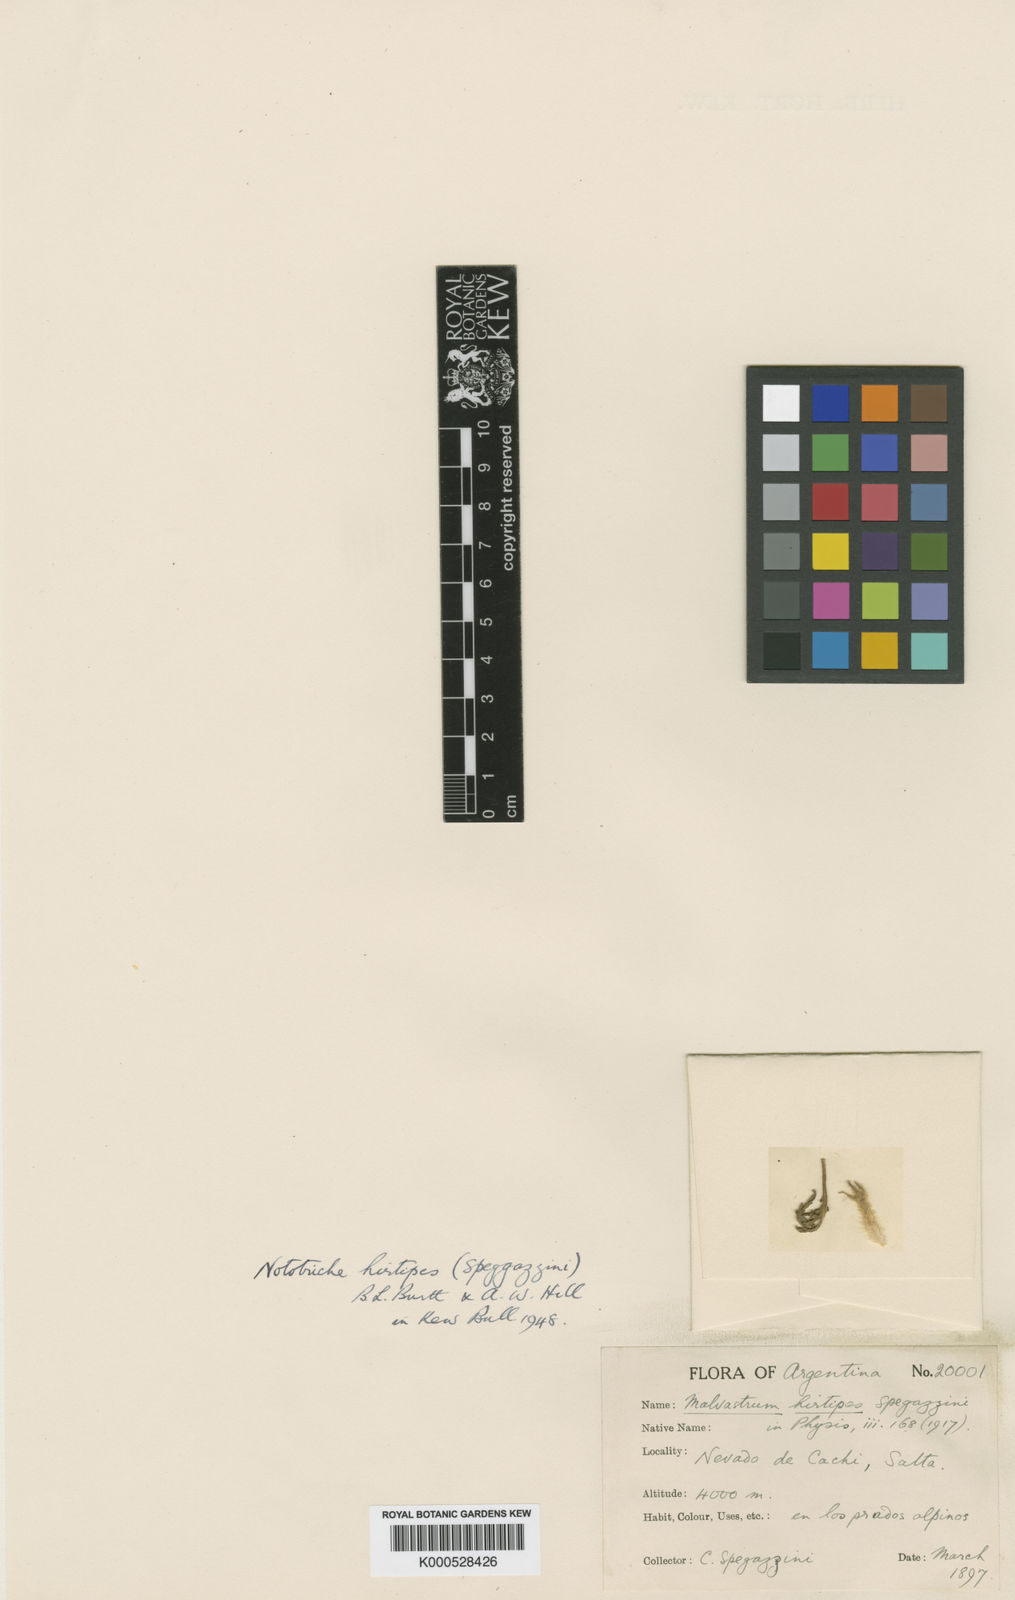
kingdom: Plantae
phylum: Tracheophyta
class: Magnoliopsida
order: Malvales
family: Malvaceae
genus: Nototriche
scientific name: Nototriche anthemidifolia
